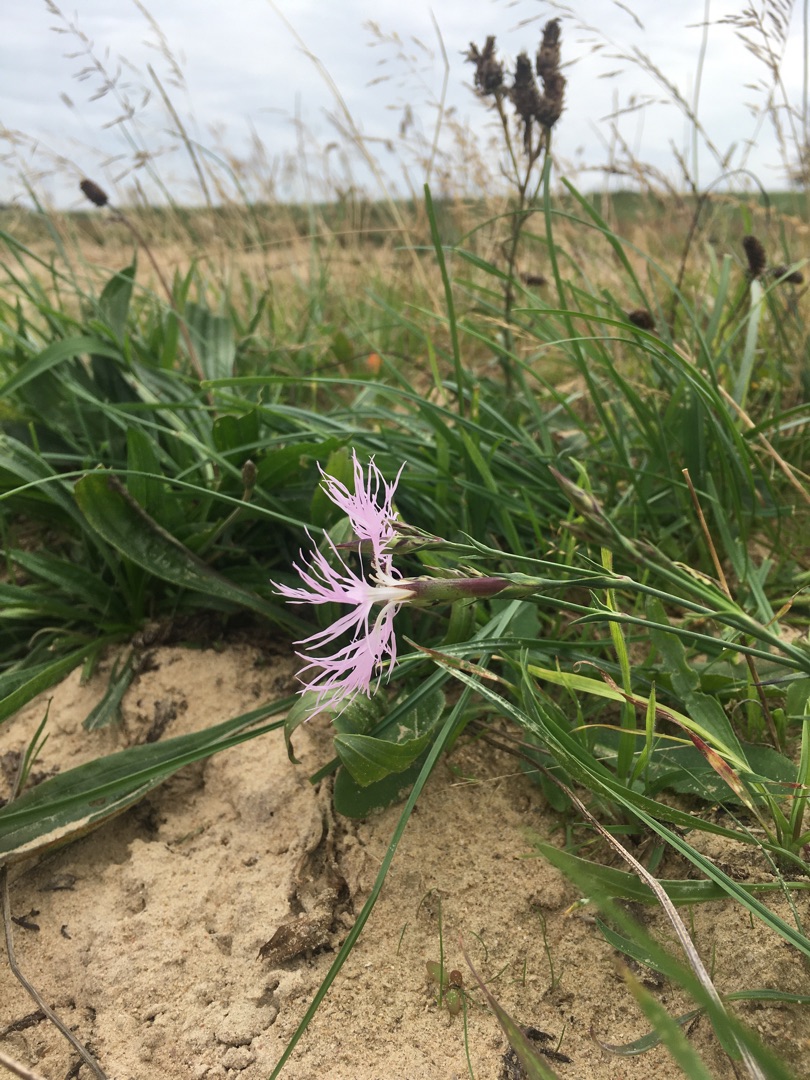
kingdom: Plantae
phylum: Tracheophyta
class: Magnoliopsida
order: Caryophyllales
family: Caryophyllaceae
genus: Dianthus
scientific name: Dianthus superbus
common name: Strand-nellike
